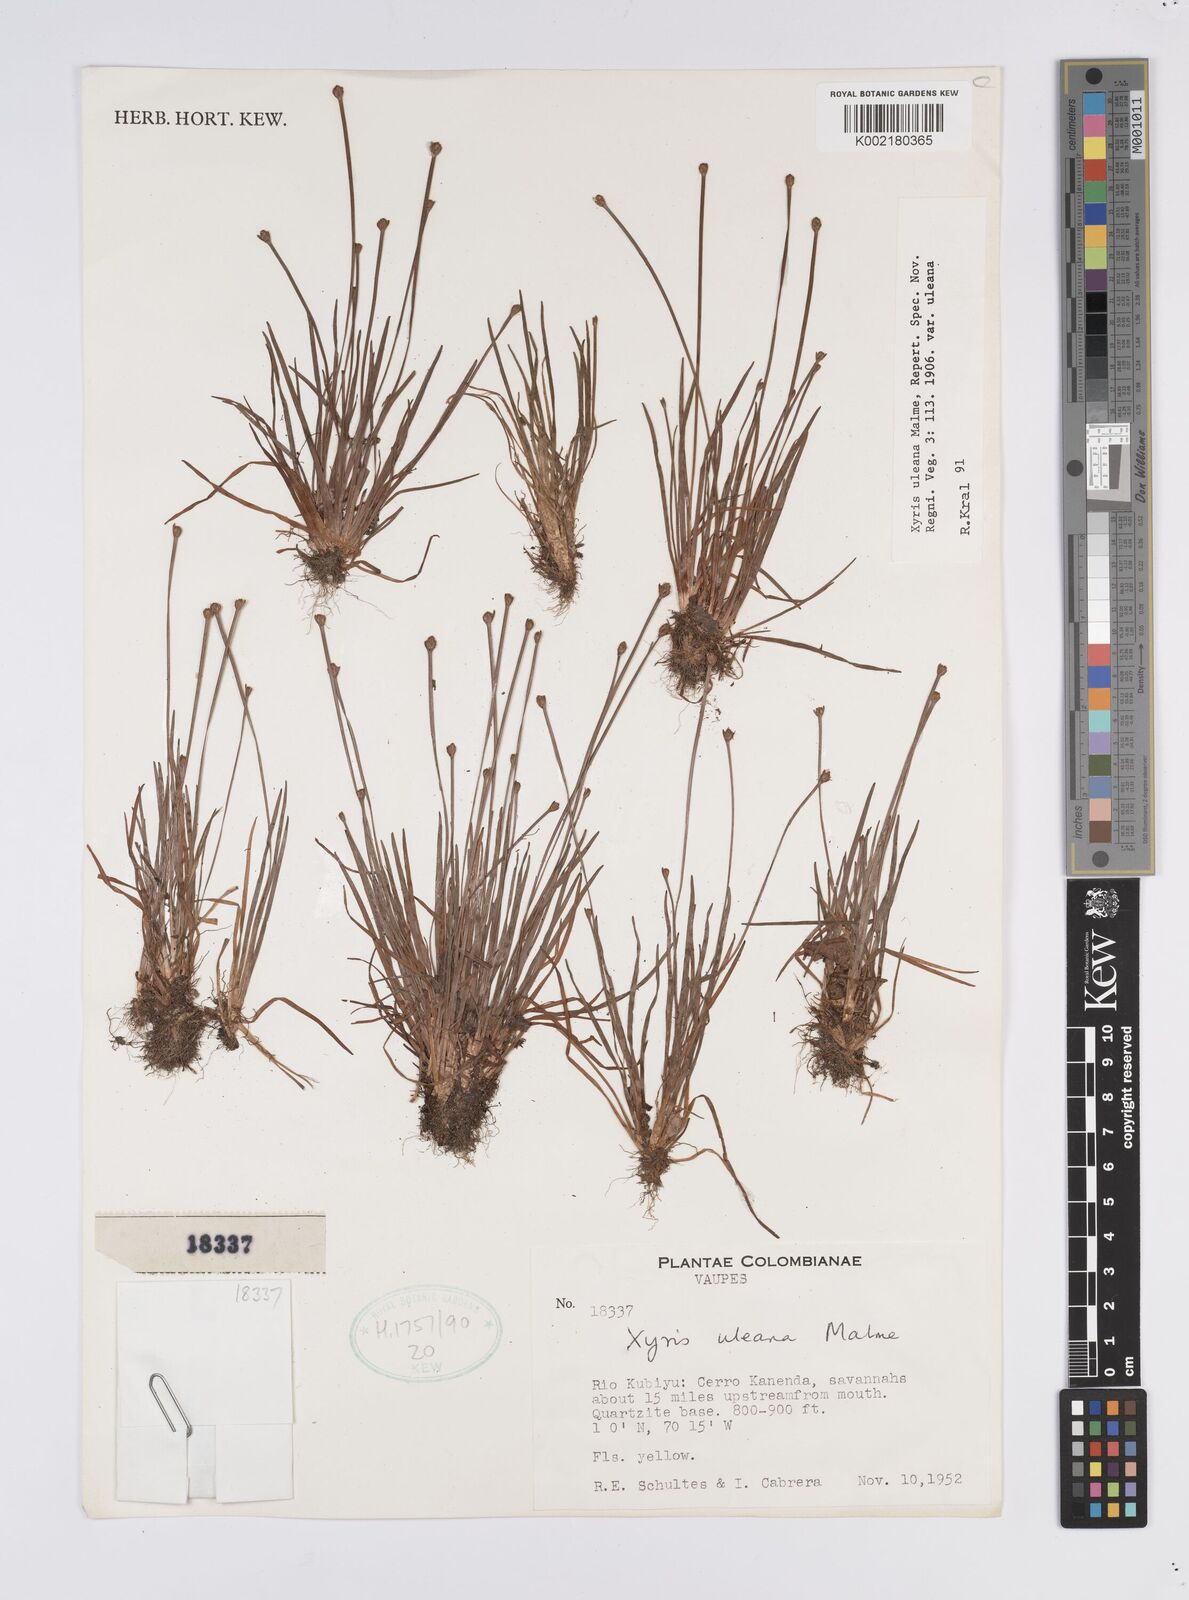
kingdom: Plantae
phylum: Tracheophyta
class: Liliopsida
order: Poales
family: Xyridaceae
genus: Xyris
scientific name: Xyris uleana
